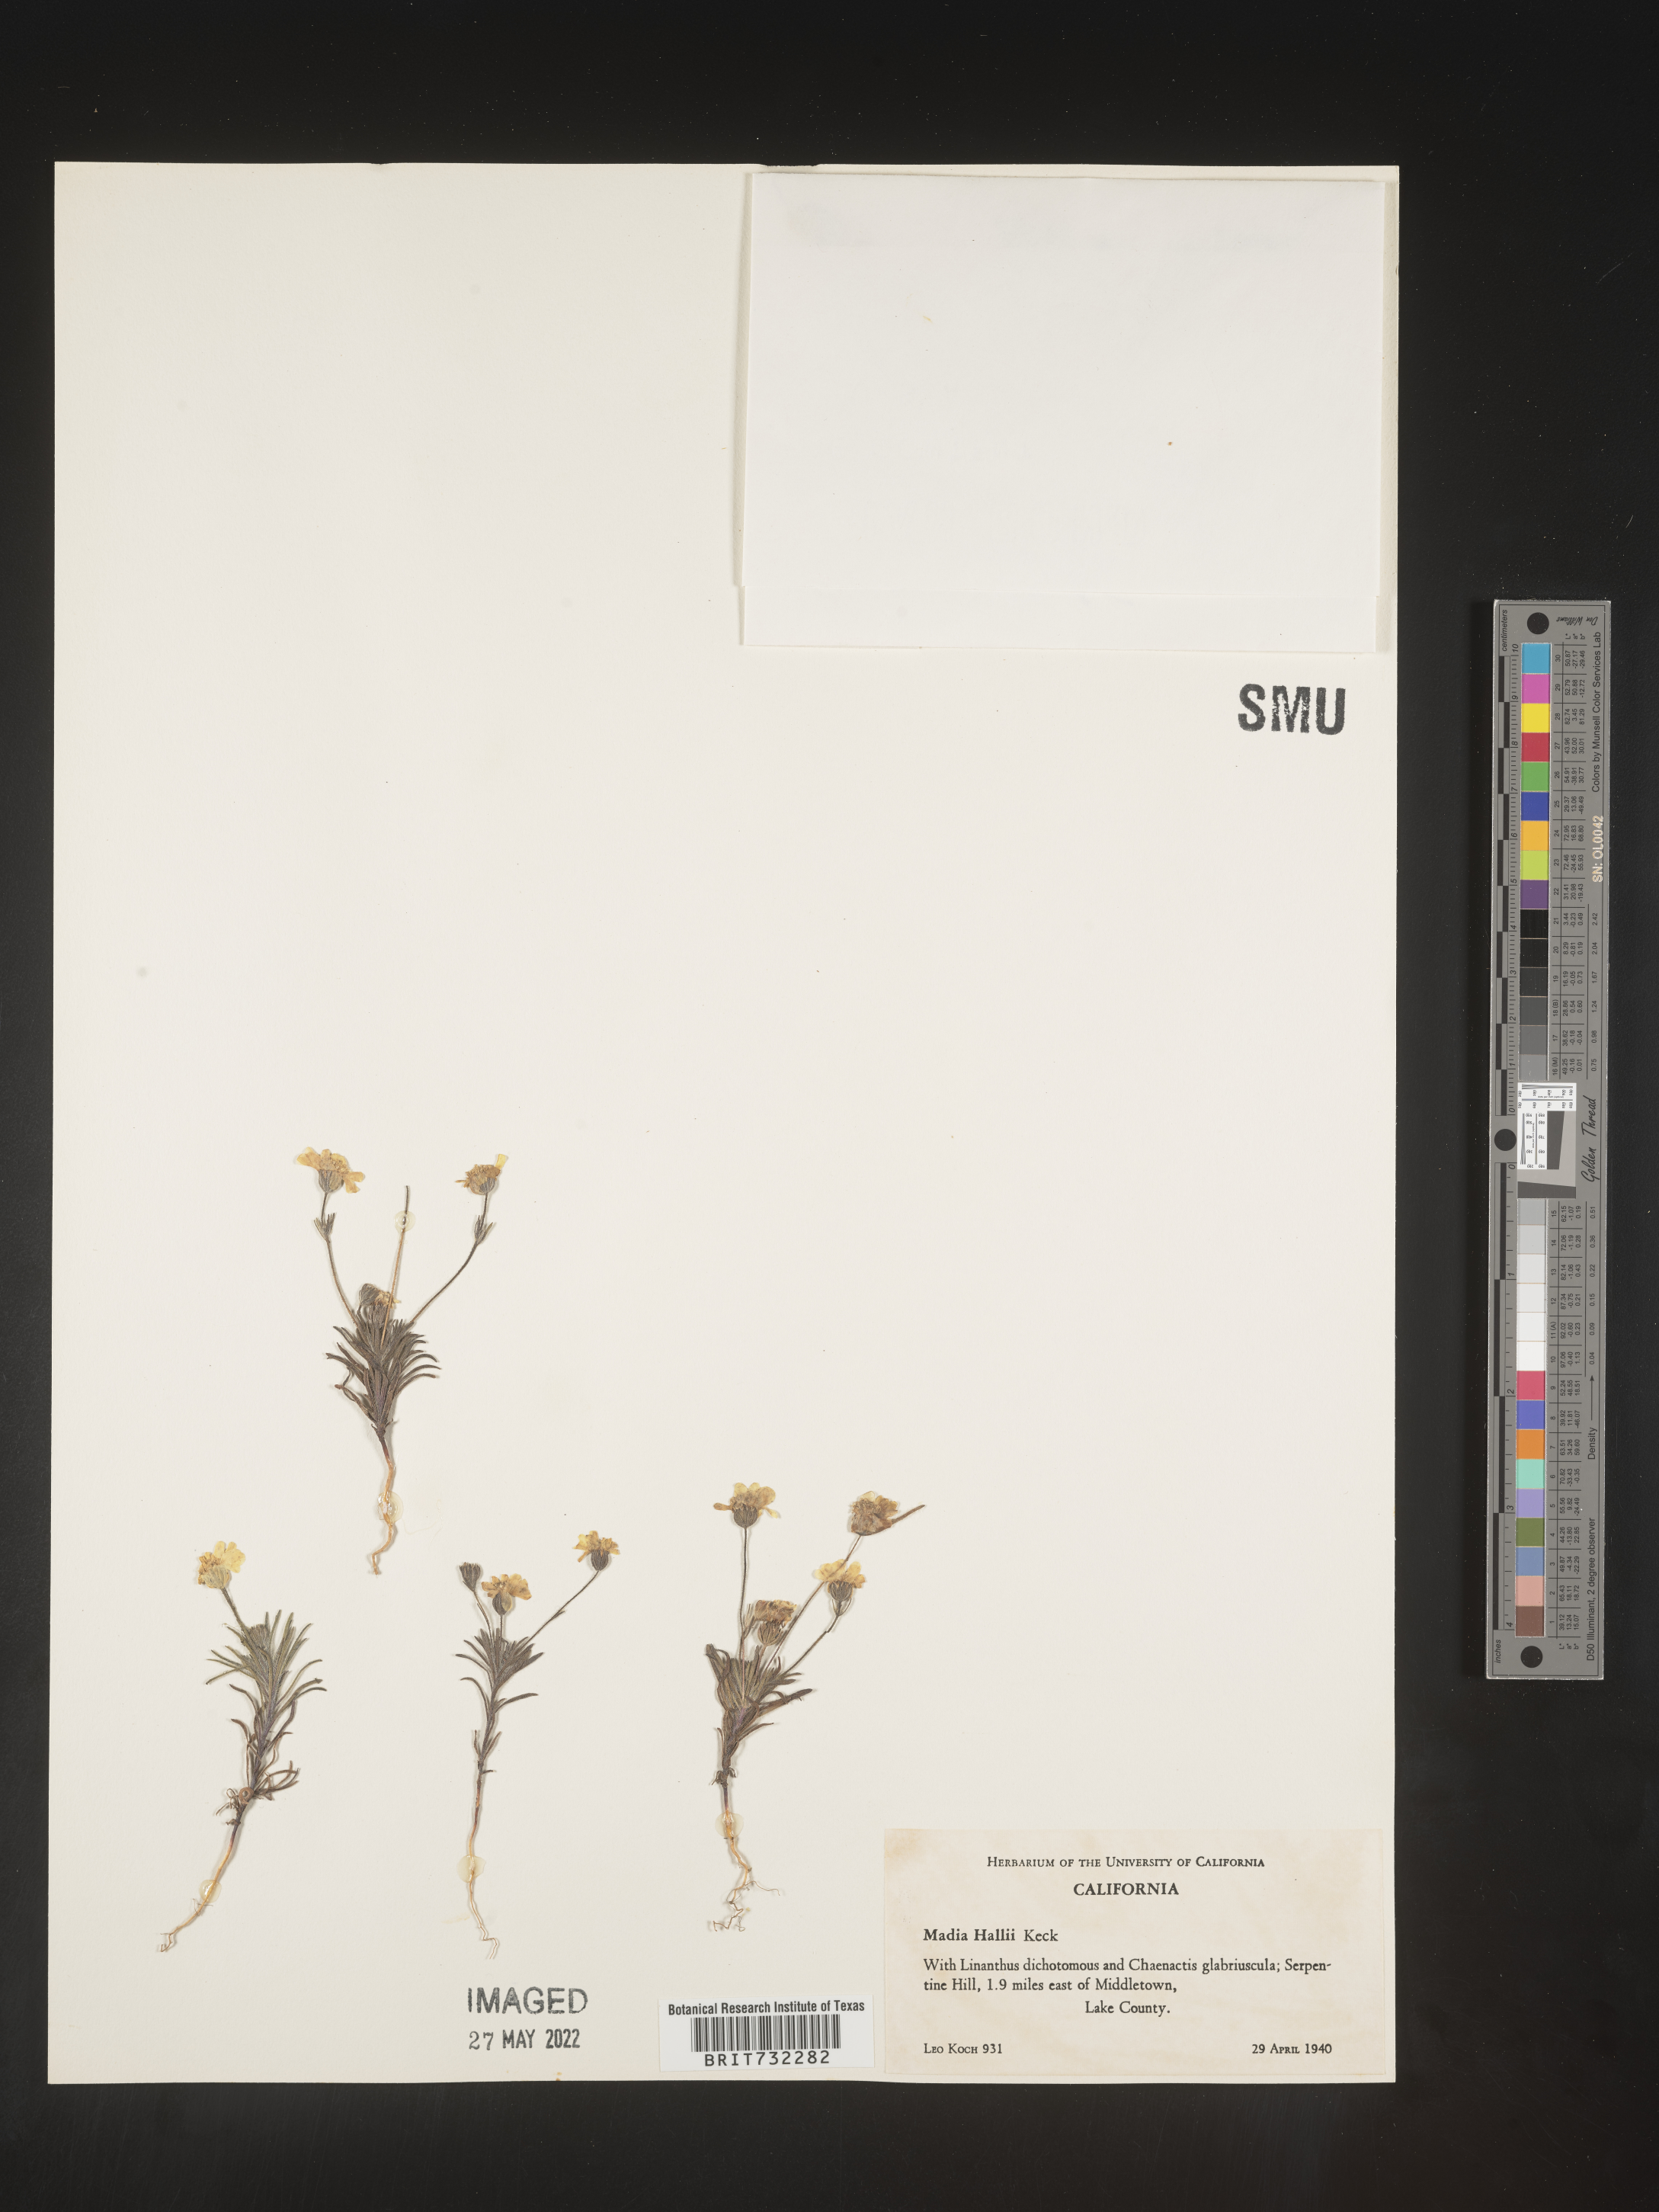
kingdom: Plantae
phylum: Tracheophyta
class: Magnoliopsida
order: Asterales
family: Asteraceae
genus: Madia
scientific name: Madia
